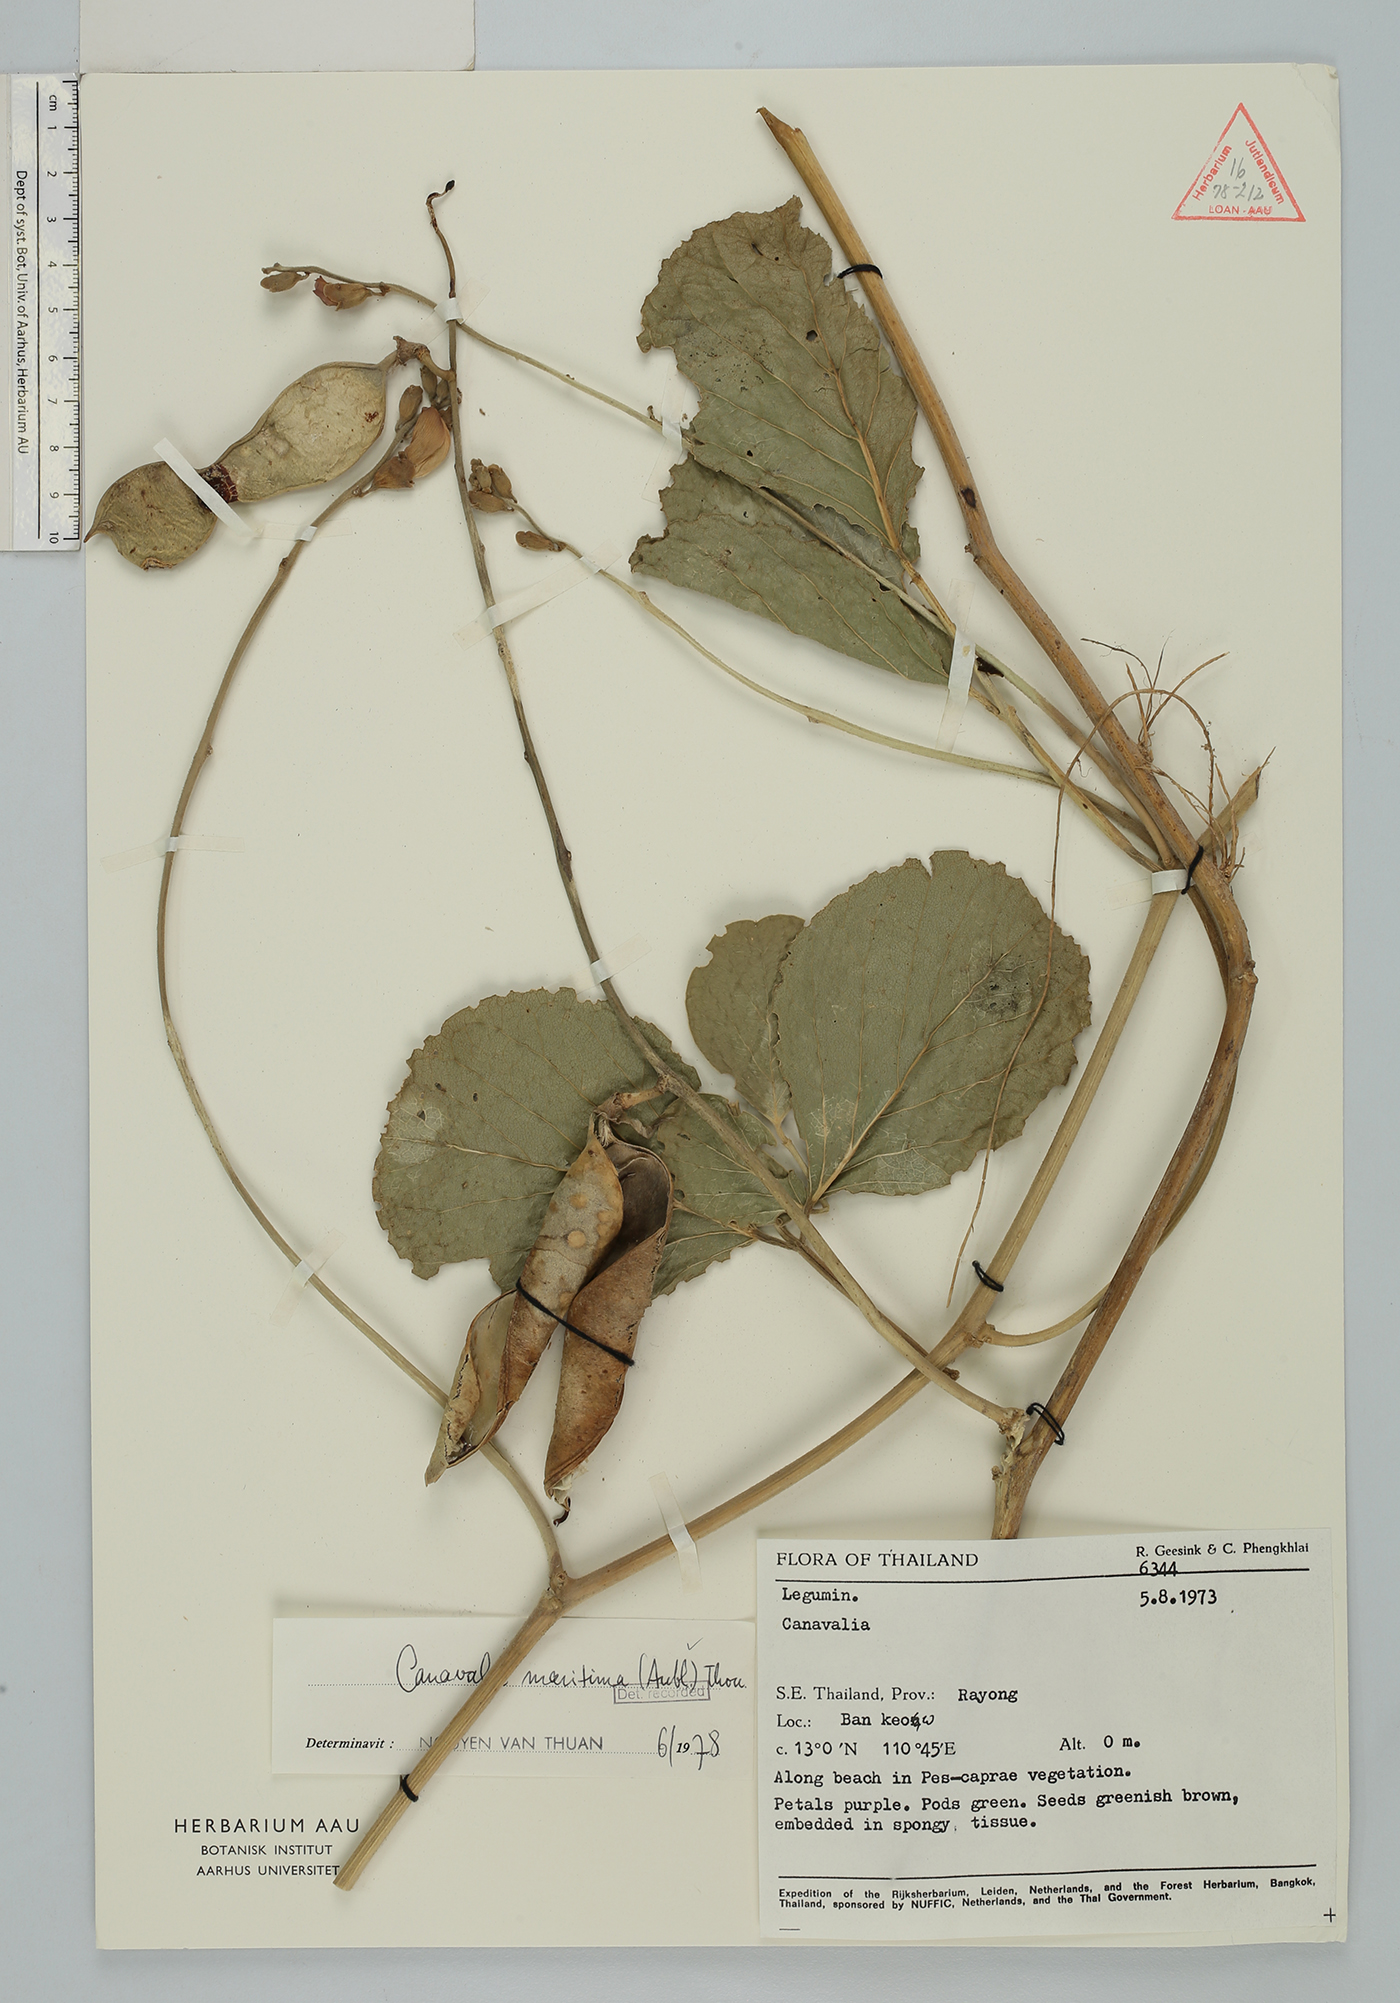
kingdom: Plantae
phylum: Tracheophyta
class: Magnoliopsida
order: Fabales
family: Fabaceae
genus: Canavalia
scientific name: Canavalia rosea
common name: Beach-bean
